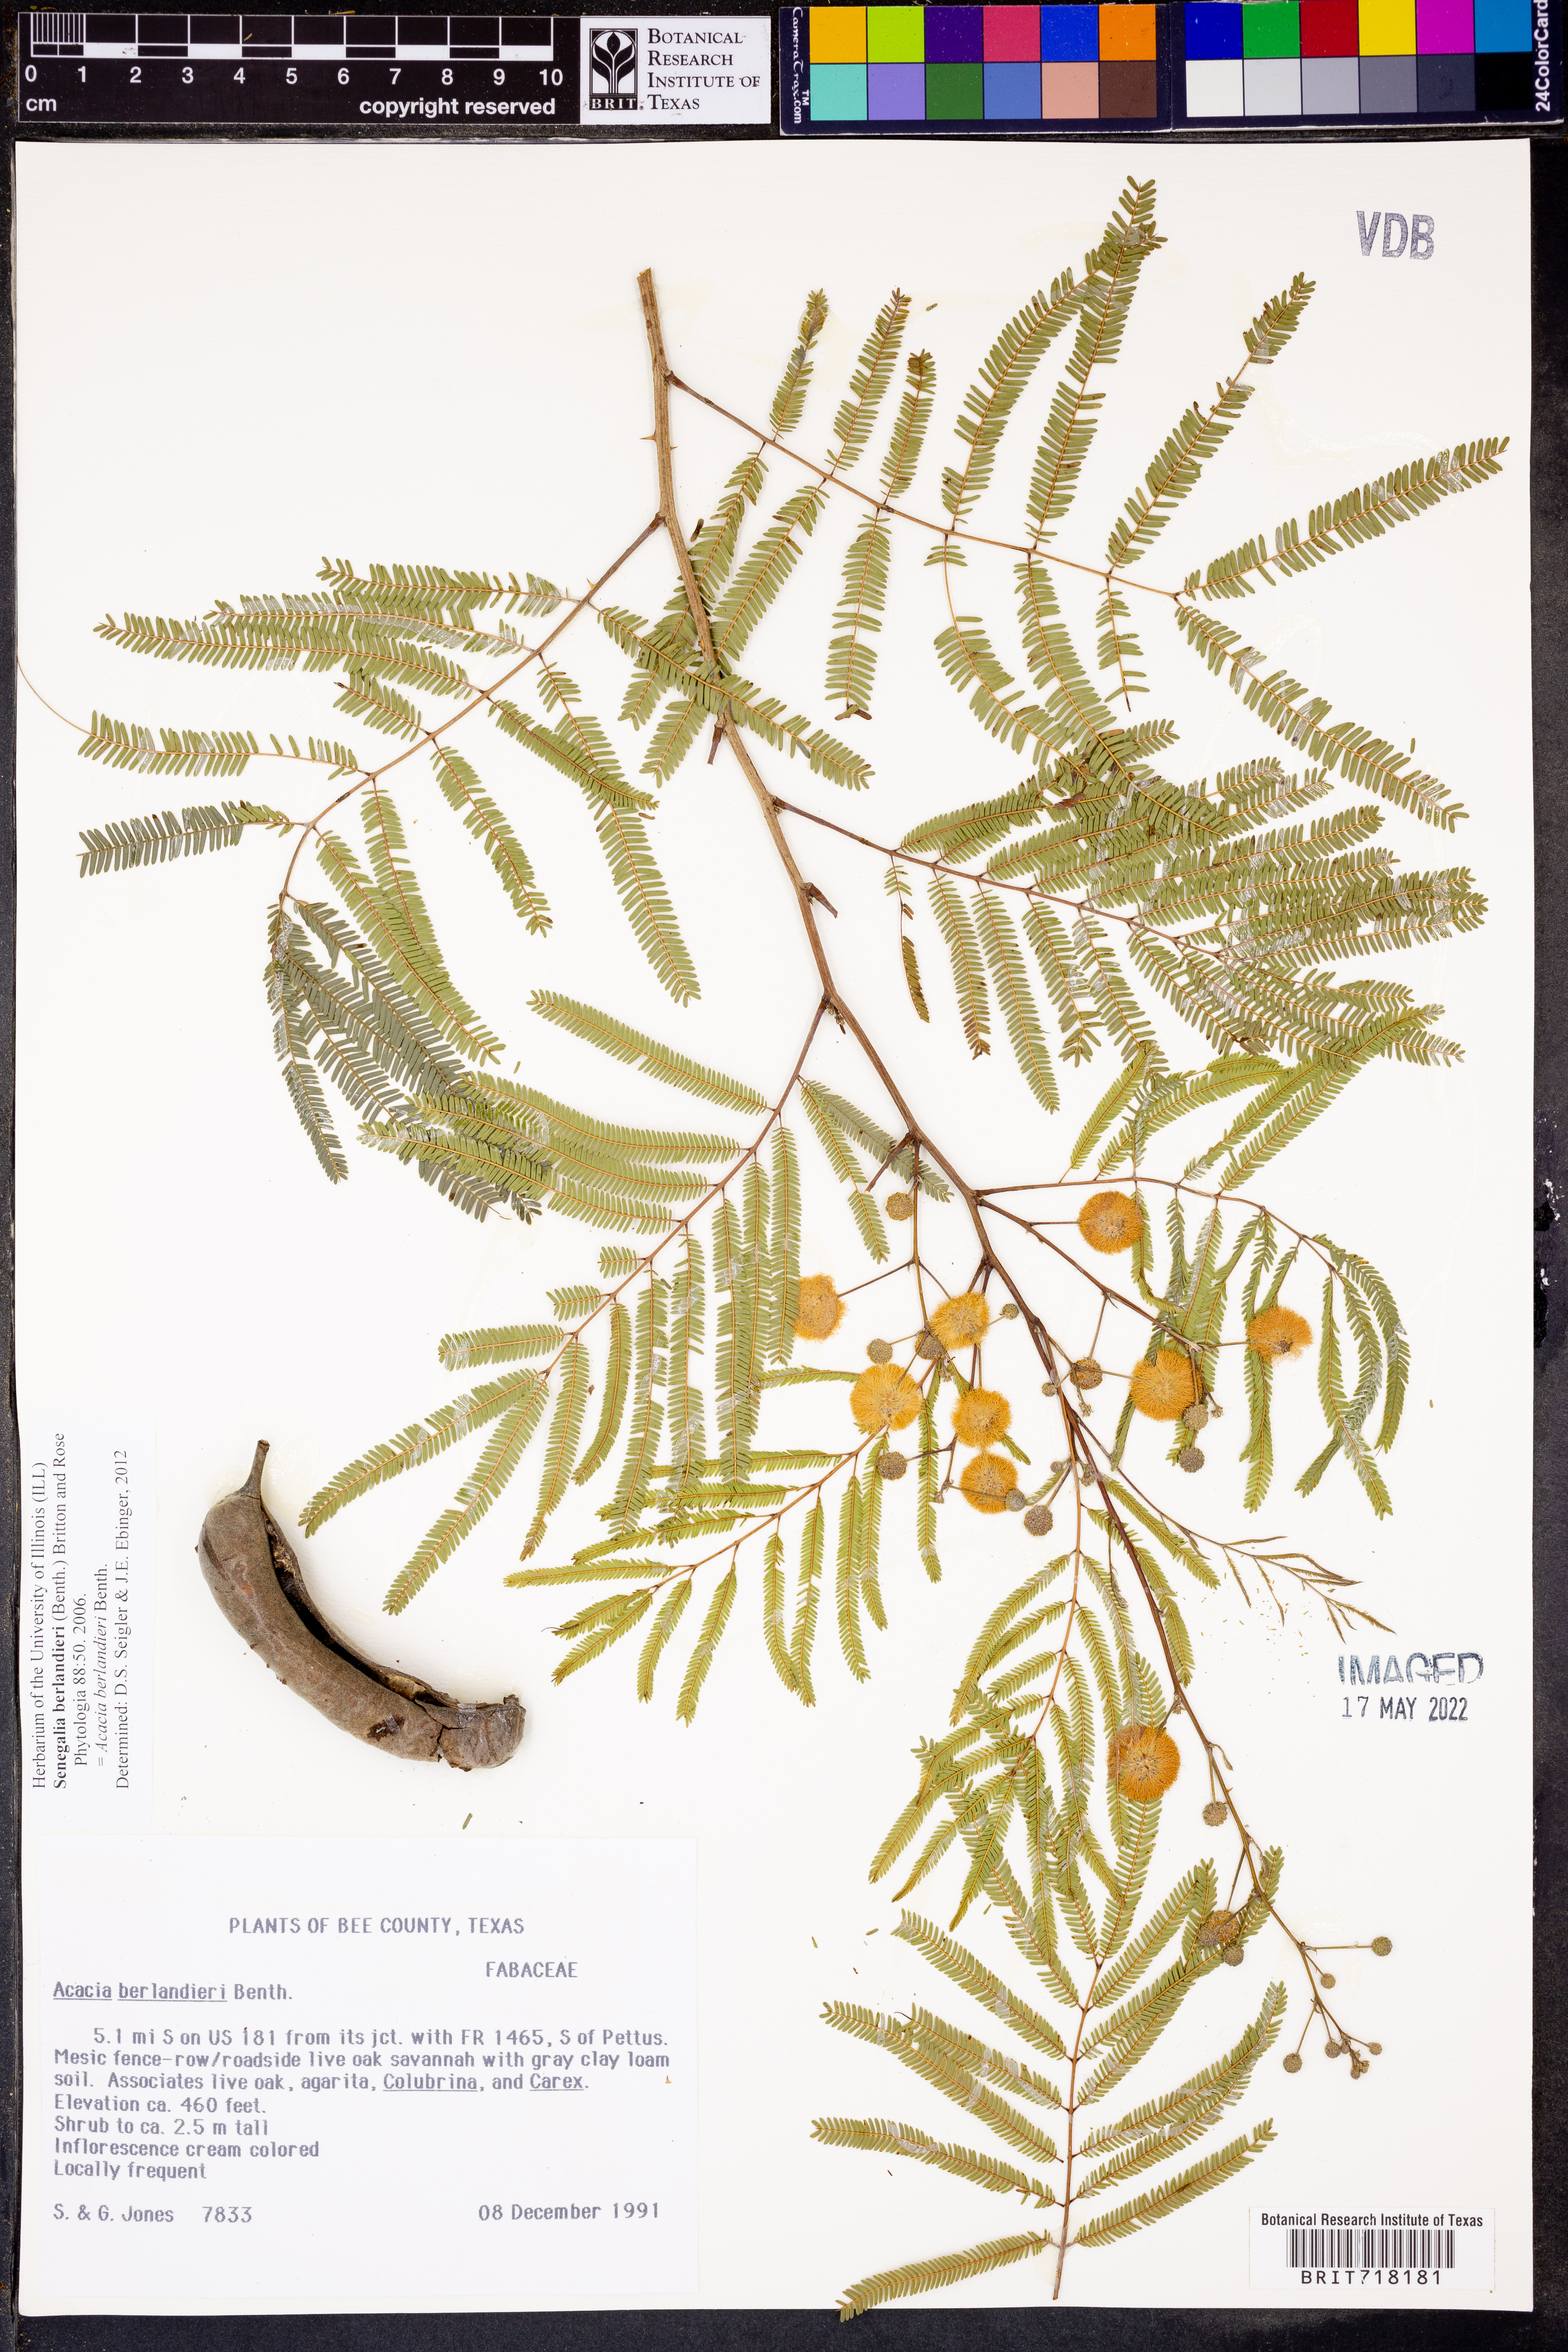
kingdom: Plantae
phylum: Tracheophyta
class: Magnoliopsida
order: Fabales
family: Fabaceae
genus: Senegalia
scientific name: Senegalia berlandieri
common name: Berlandier acacia
